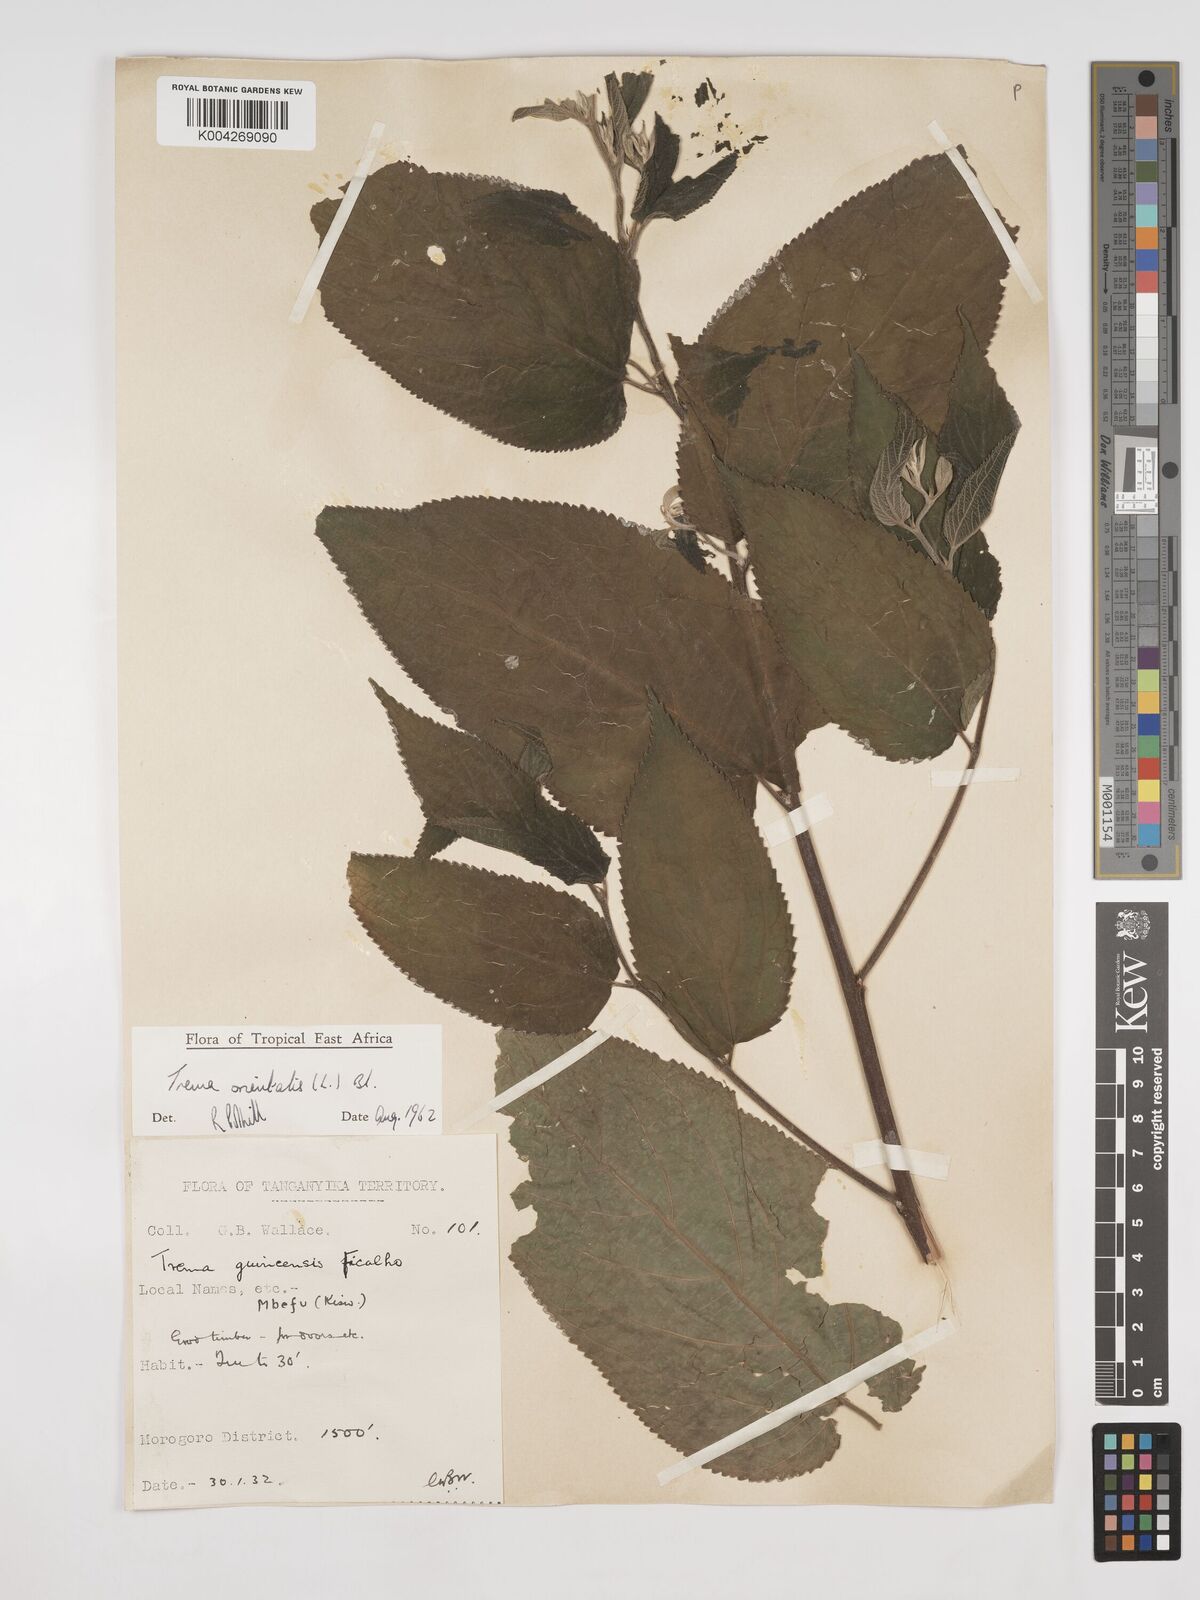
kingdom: Plantae
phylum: Tracheophyta
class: Magnoliopsida
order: Rosales
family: Cannabaceae
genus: Trema
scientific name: Trema orientale
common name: Indian charcoal tree
